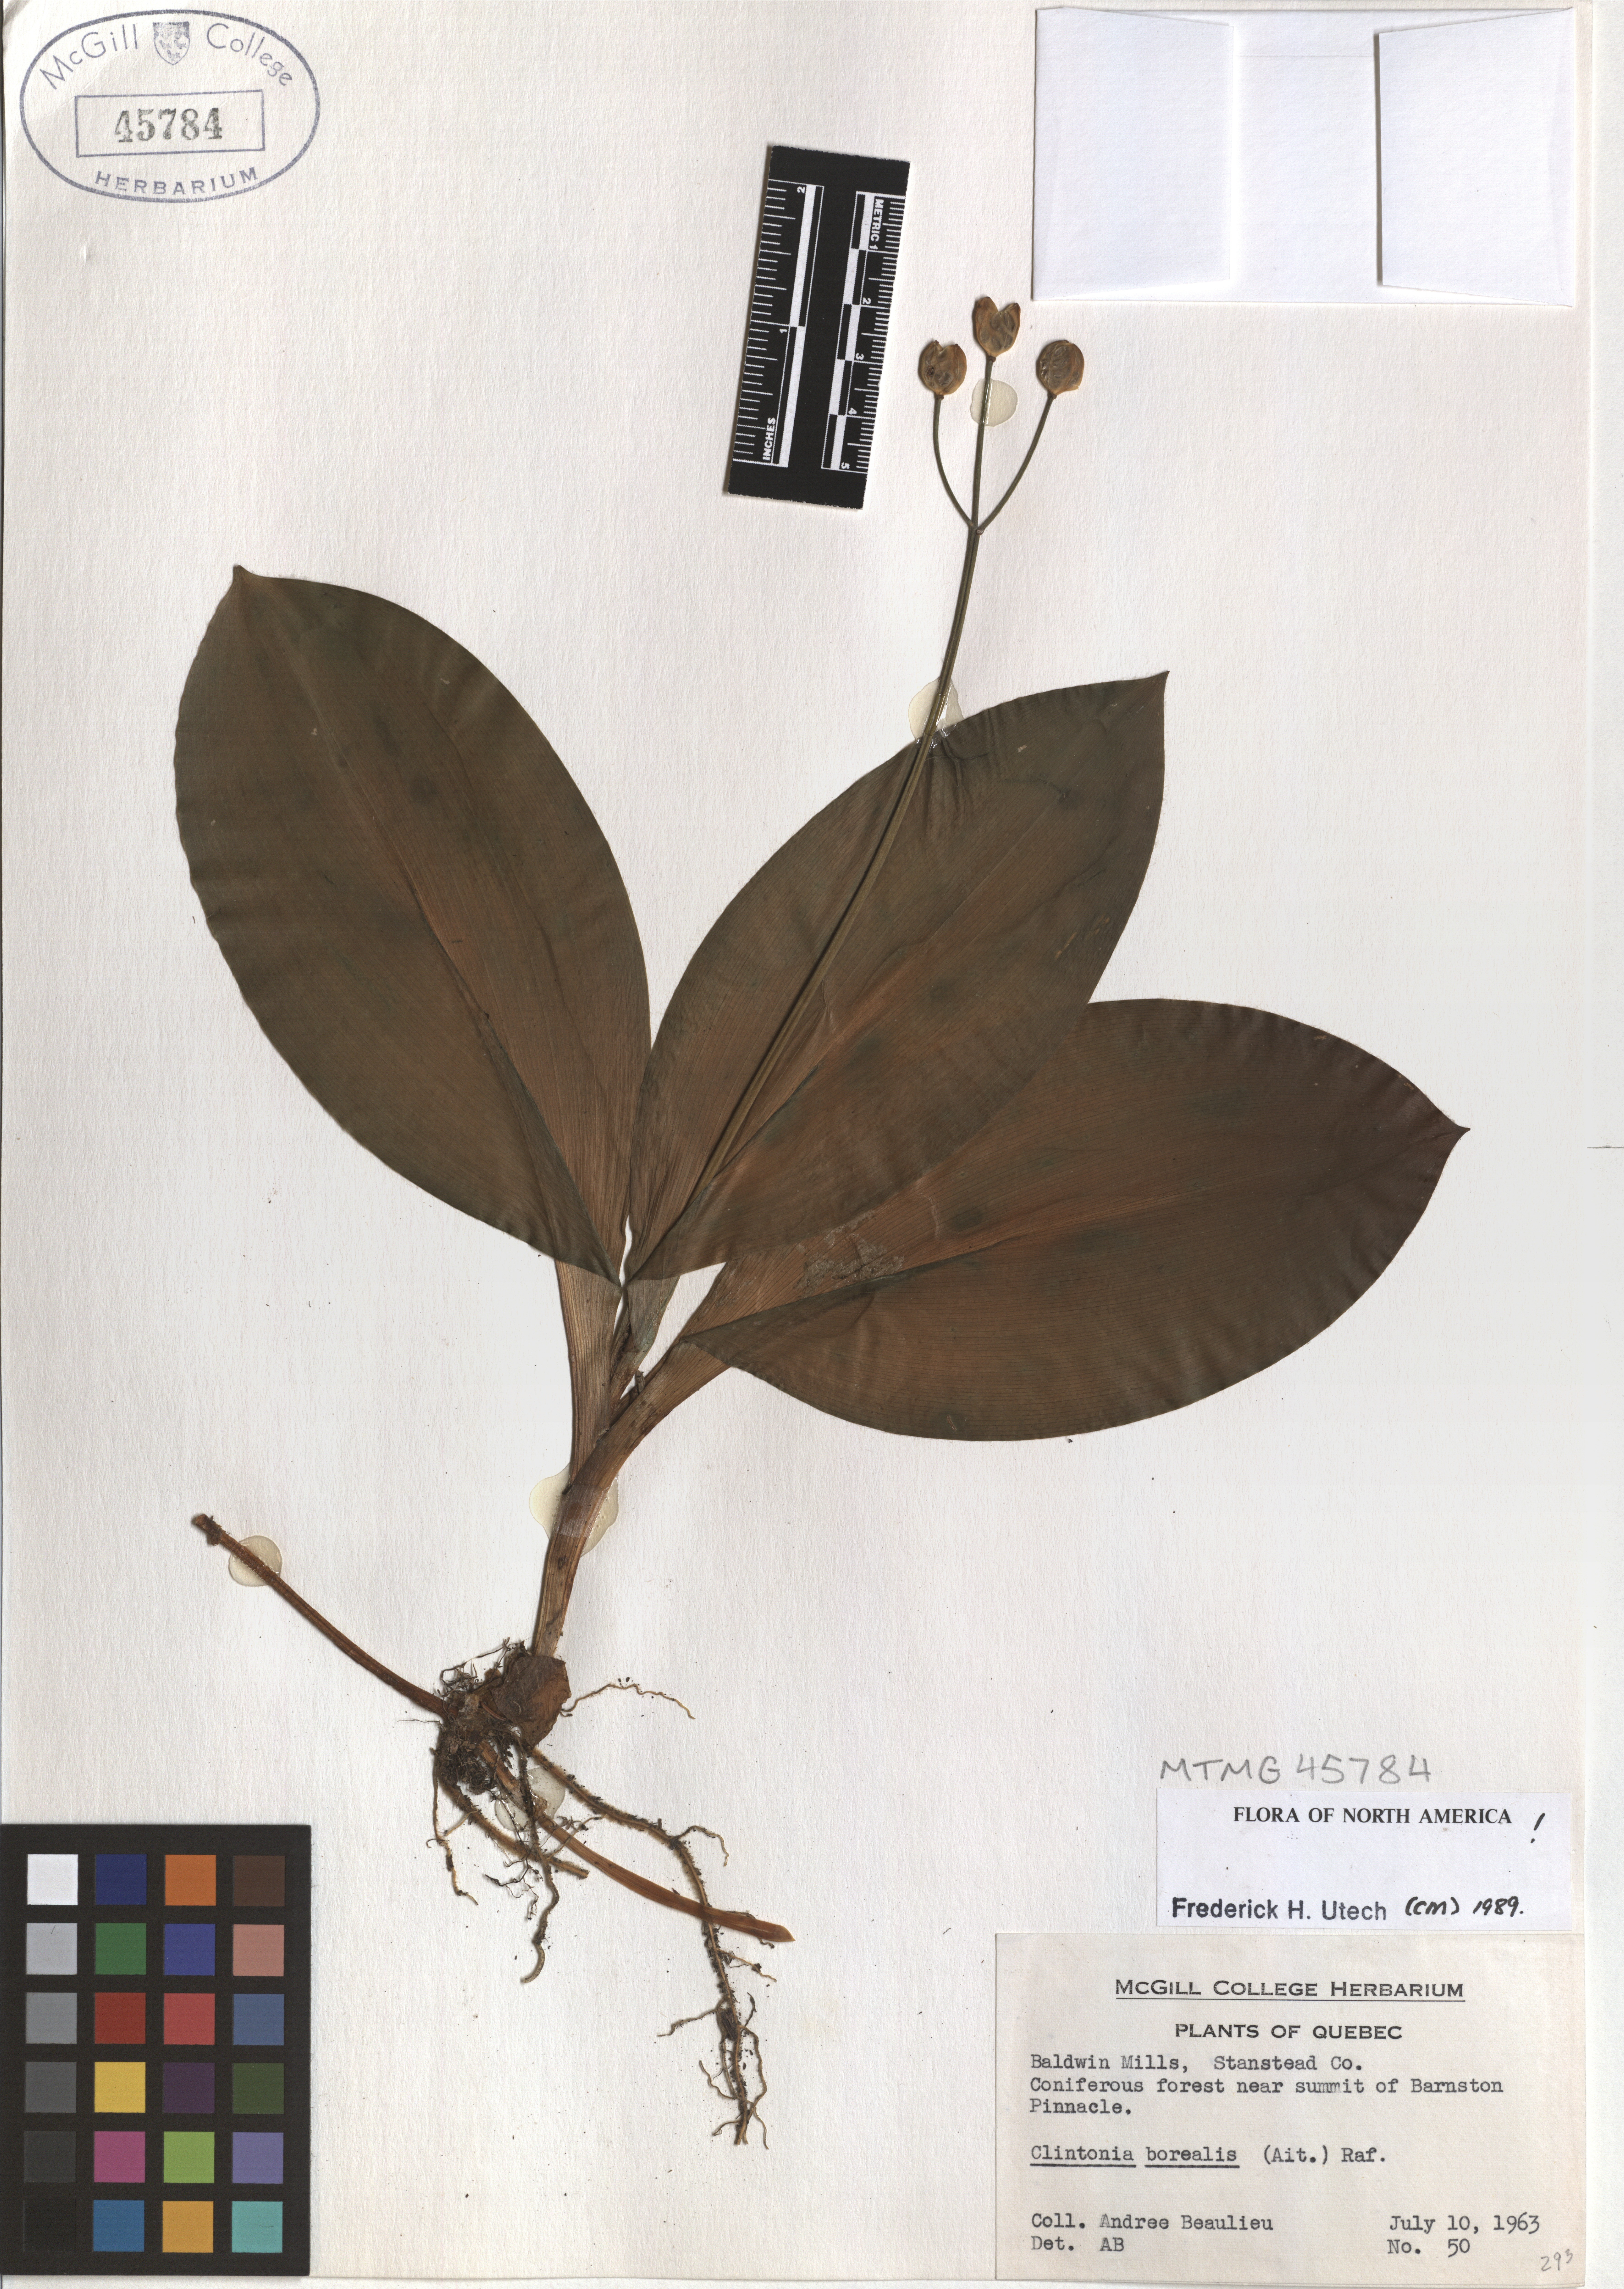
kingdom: Plantae
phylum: Tracheophyta
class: Liliopsida
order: Liliales
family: Liliaceae
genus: Clintonia
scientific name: Clintonia borealis
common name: Yellow clintonia
